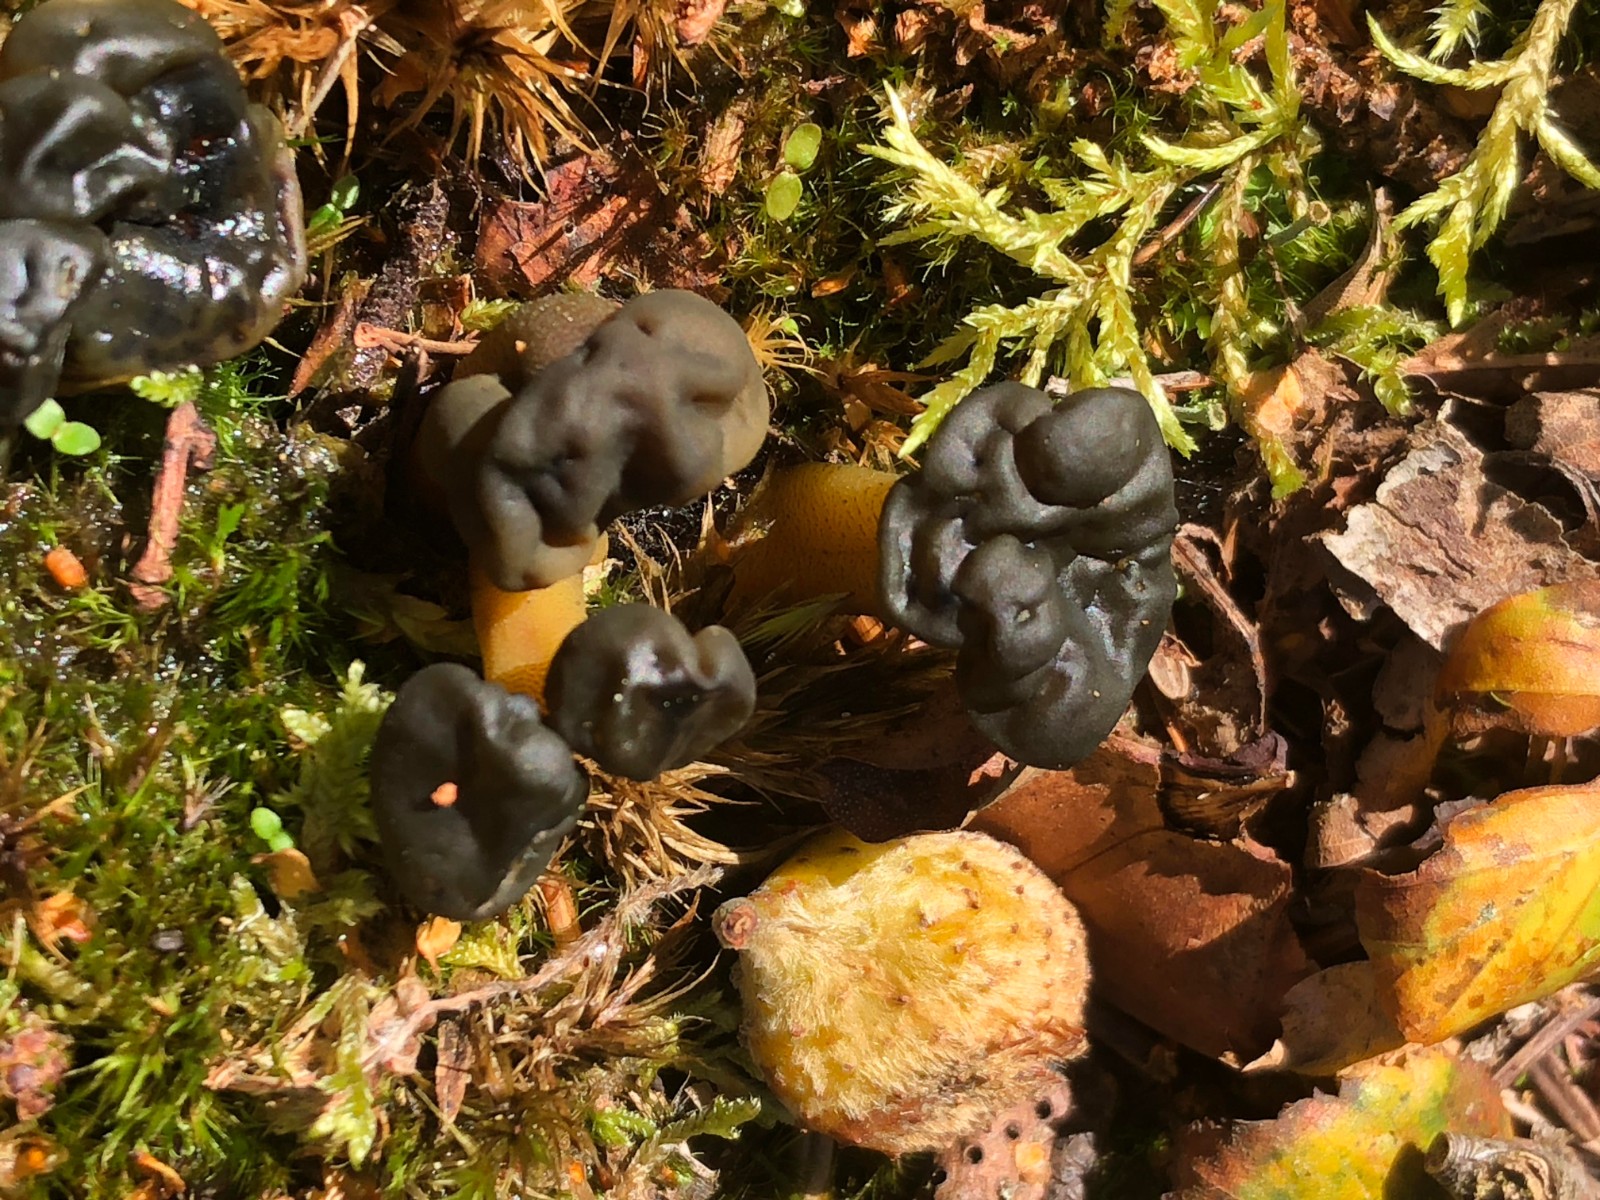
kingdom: Fungi
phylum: Ascomycota
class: Leotiomycetes
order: Leotiales
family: Leotiaceae
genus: Leotia
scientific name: Leotia
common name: ravsvamp
